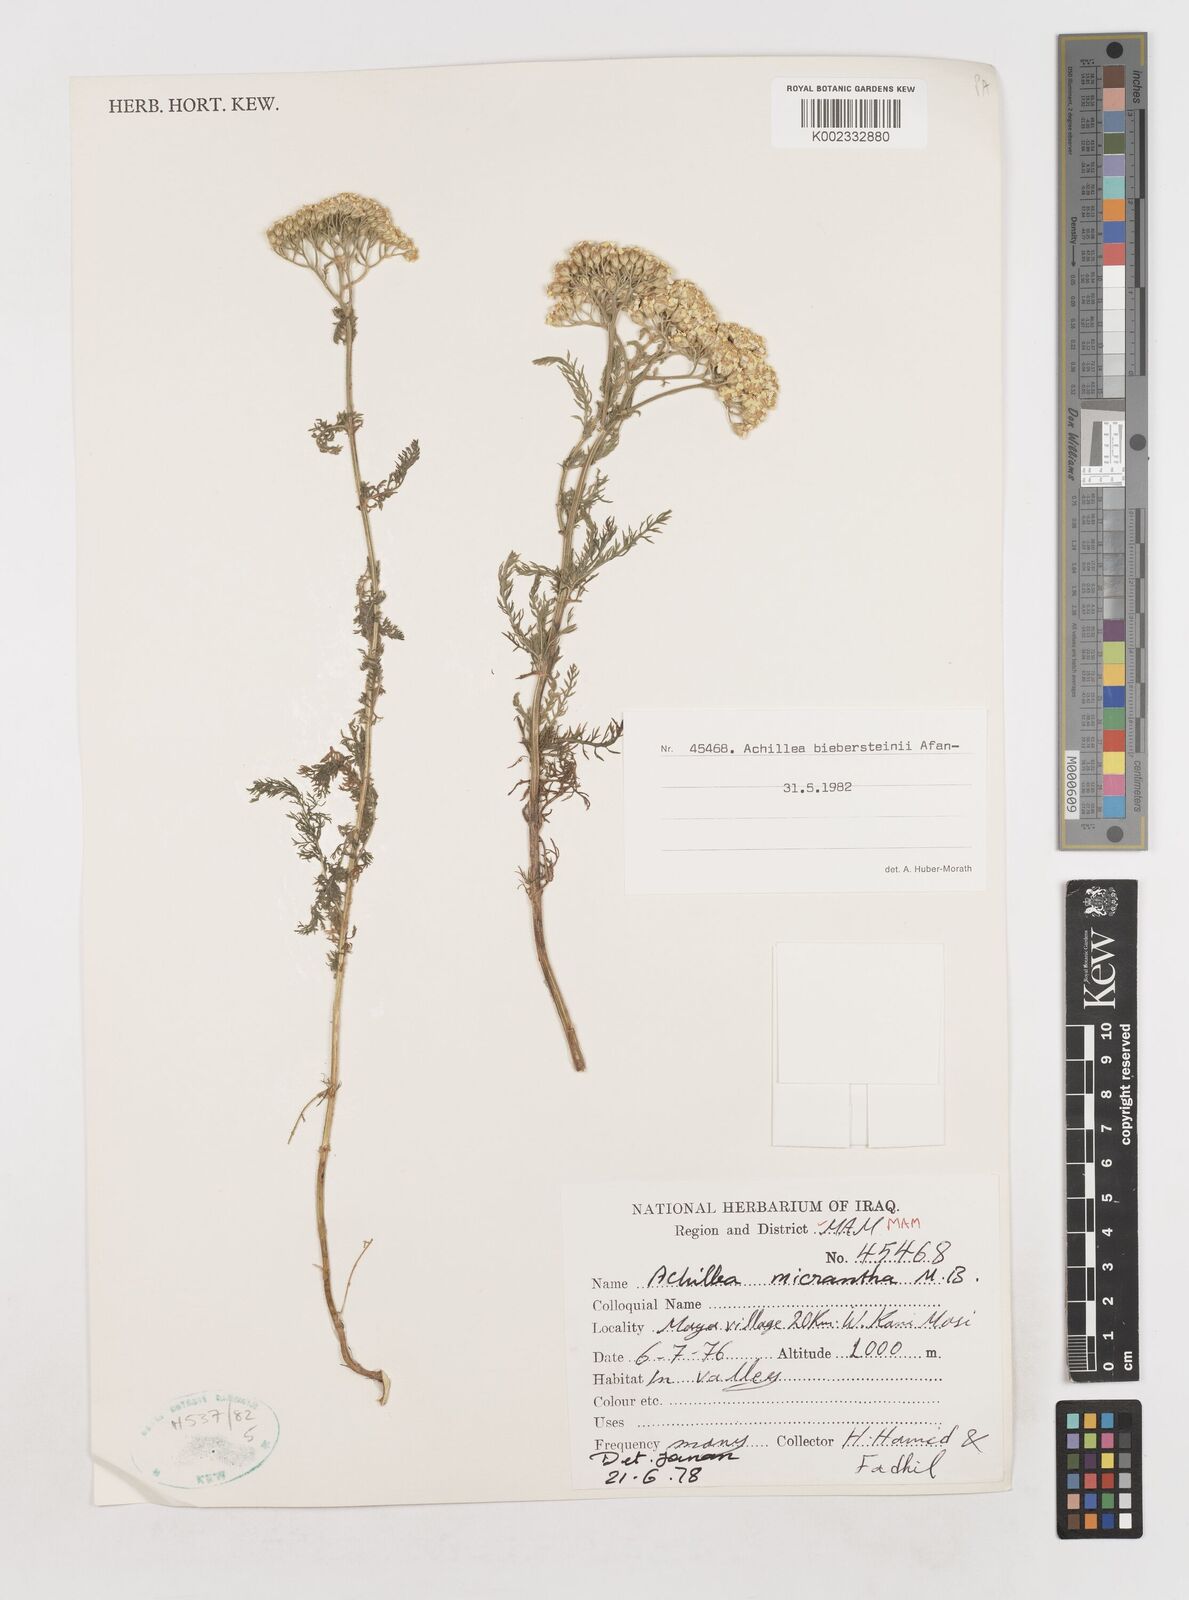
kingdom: Plantae
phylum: Tracheophyta
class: Magnoliopsida
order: Asterales
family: Asteraceae
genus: Achillea
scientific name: Achillea arabica
